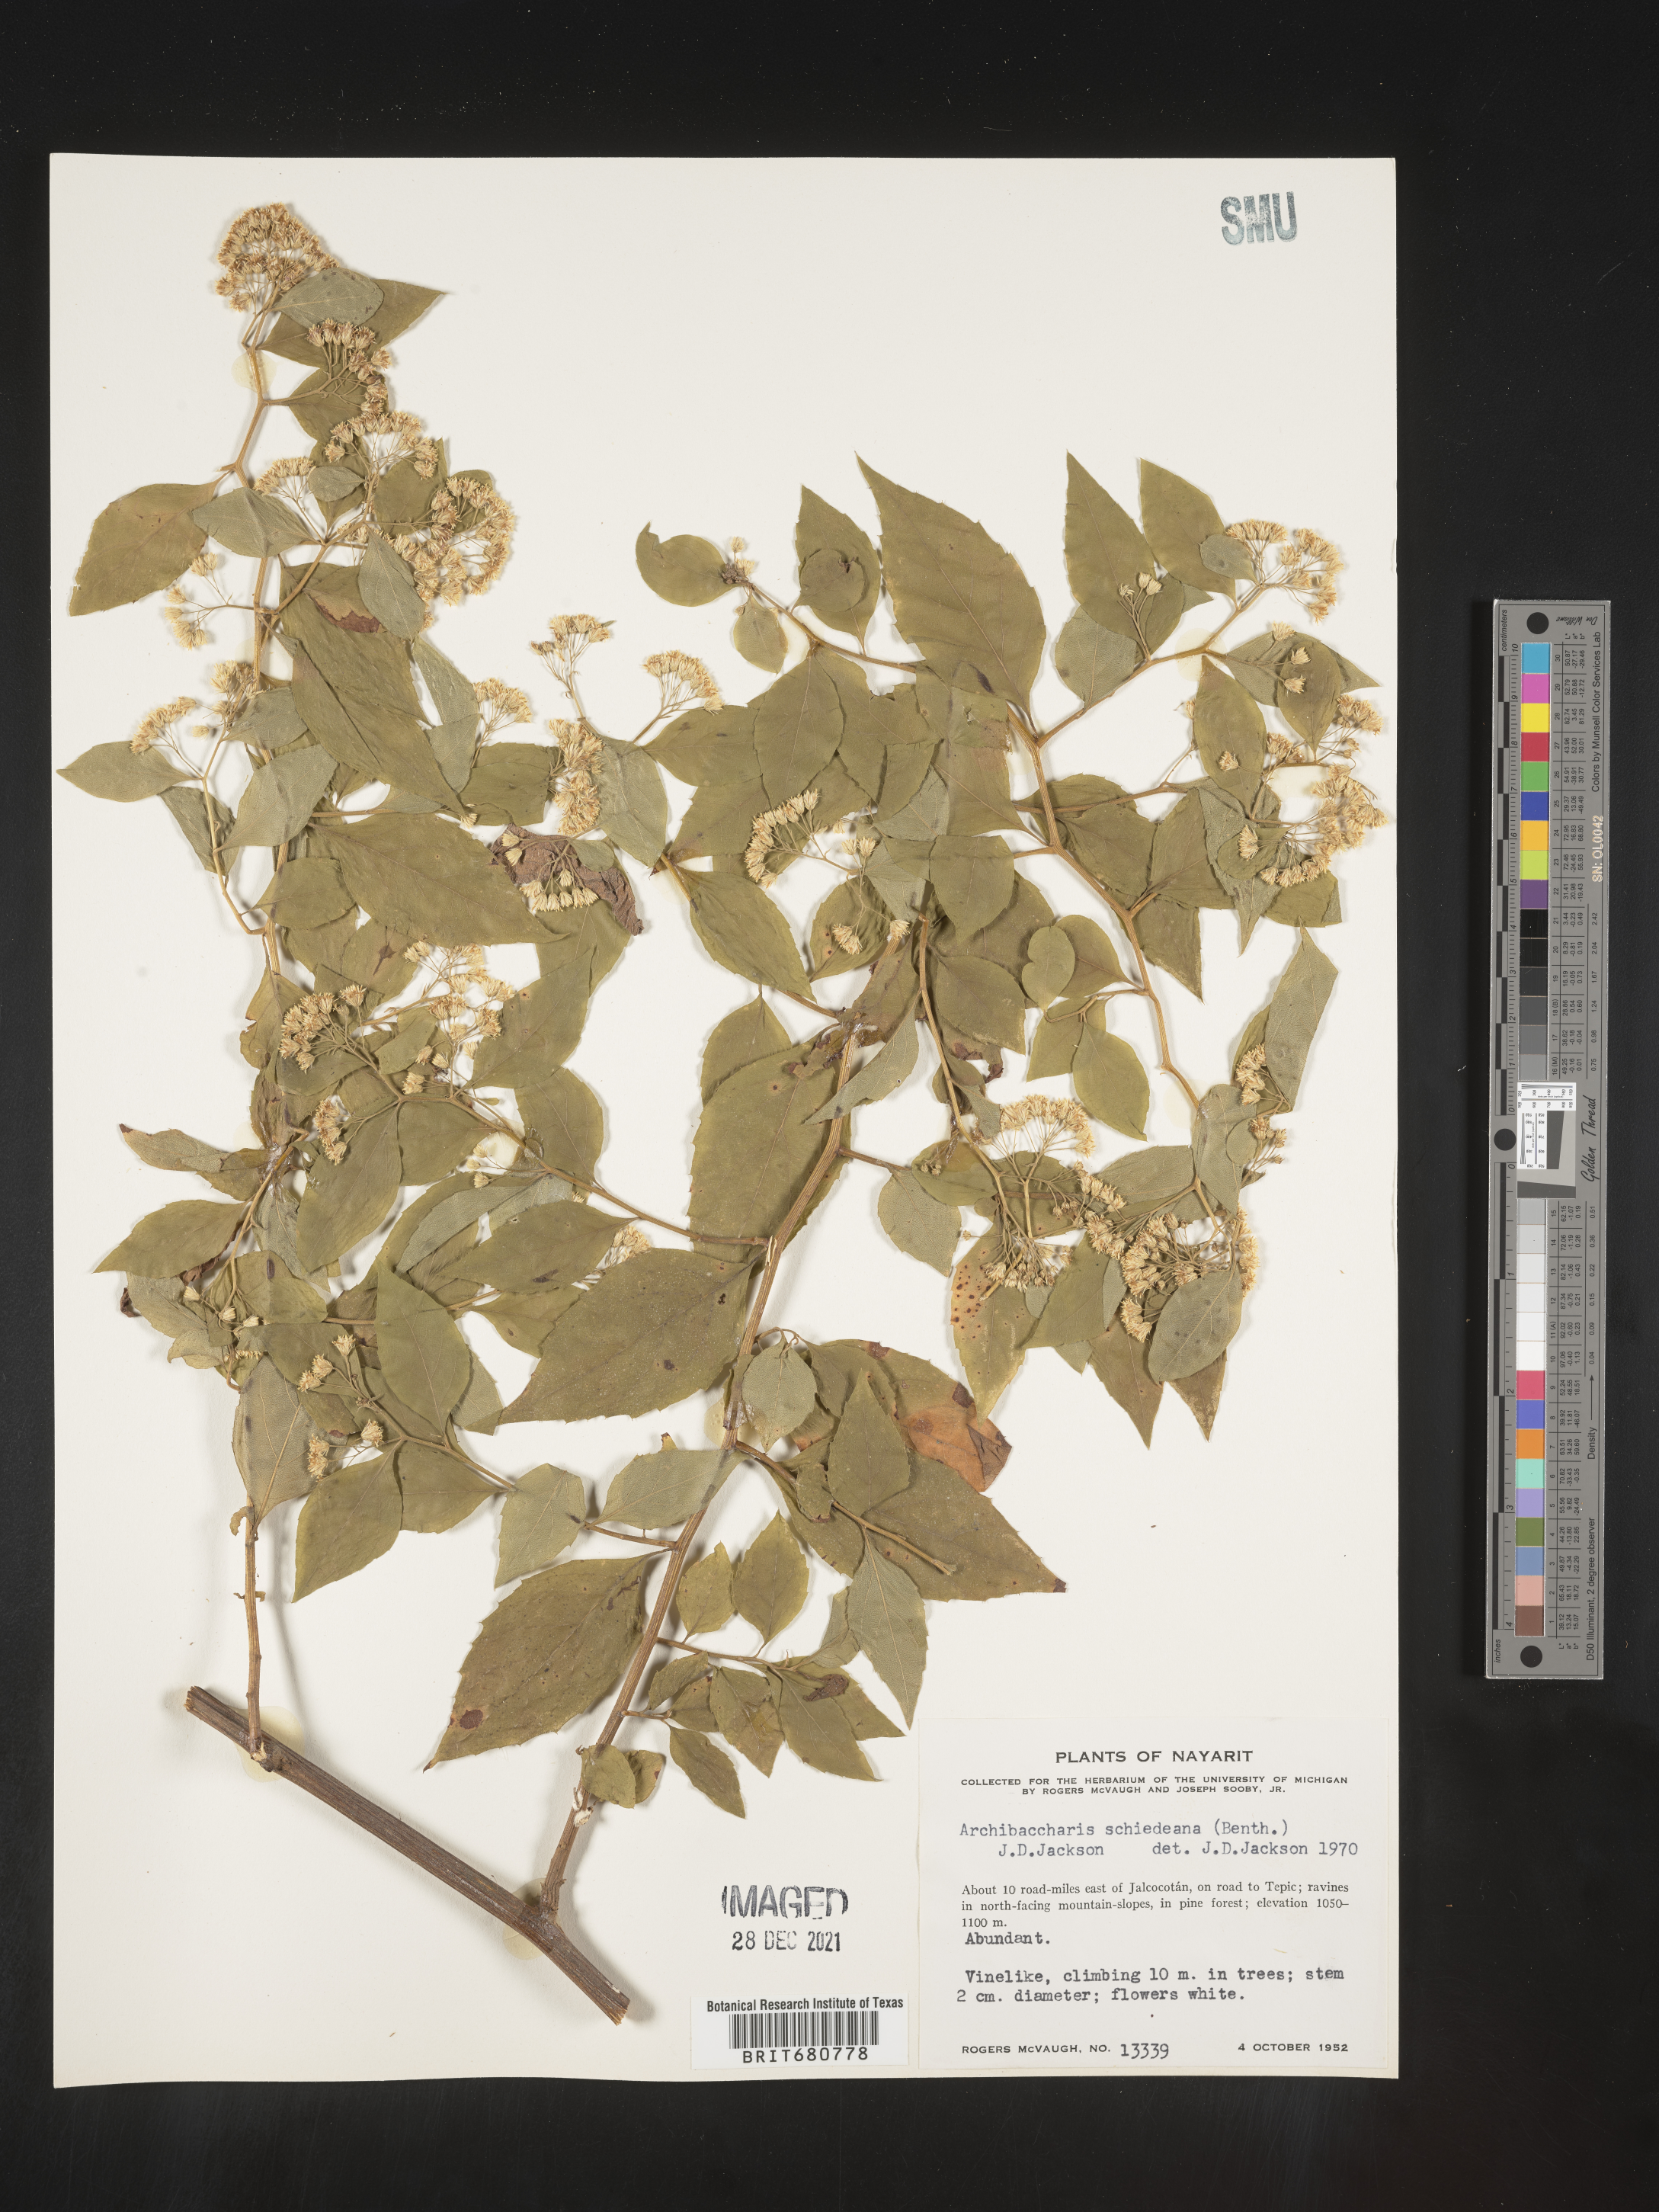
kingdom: Plantae
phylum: Tracheophyta
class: Magnoliopsida
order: Asterales
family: Asteraceae
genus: Archibaccharis
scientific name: Archibaccharis
